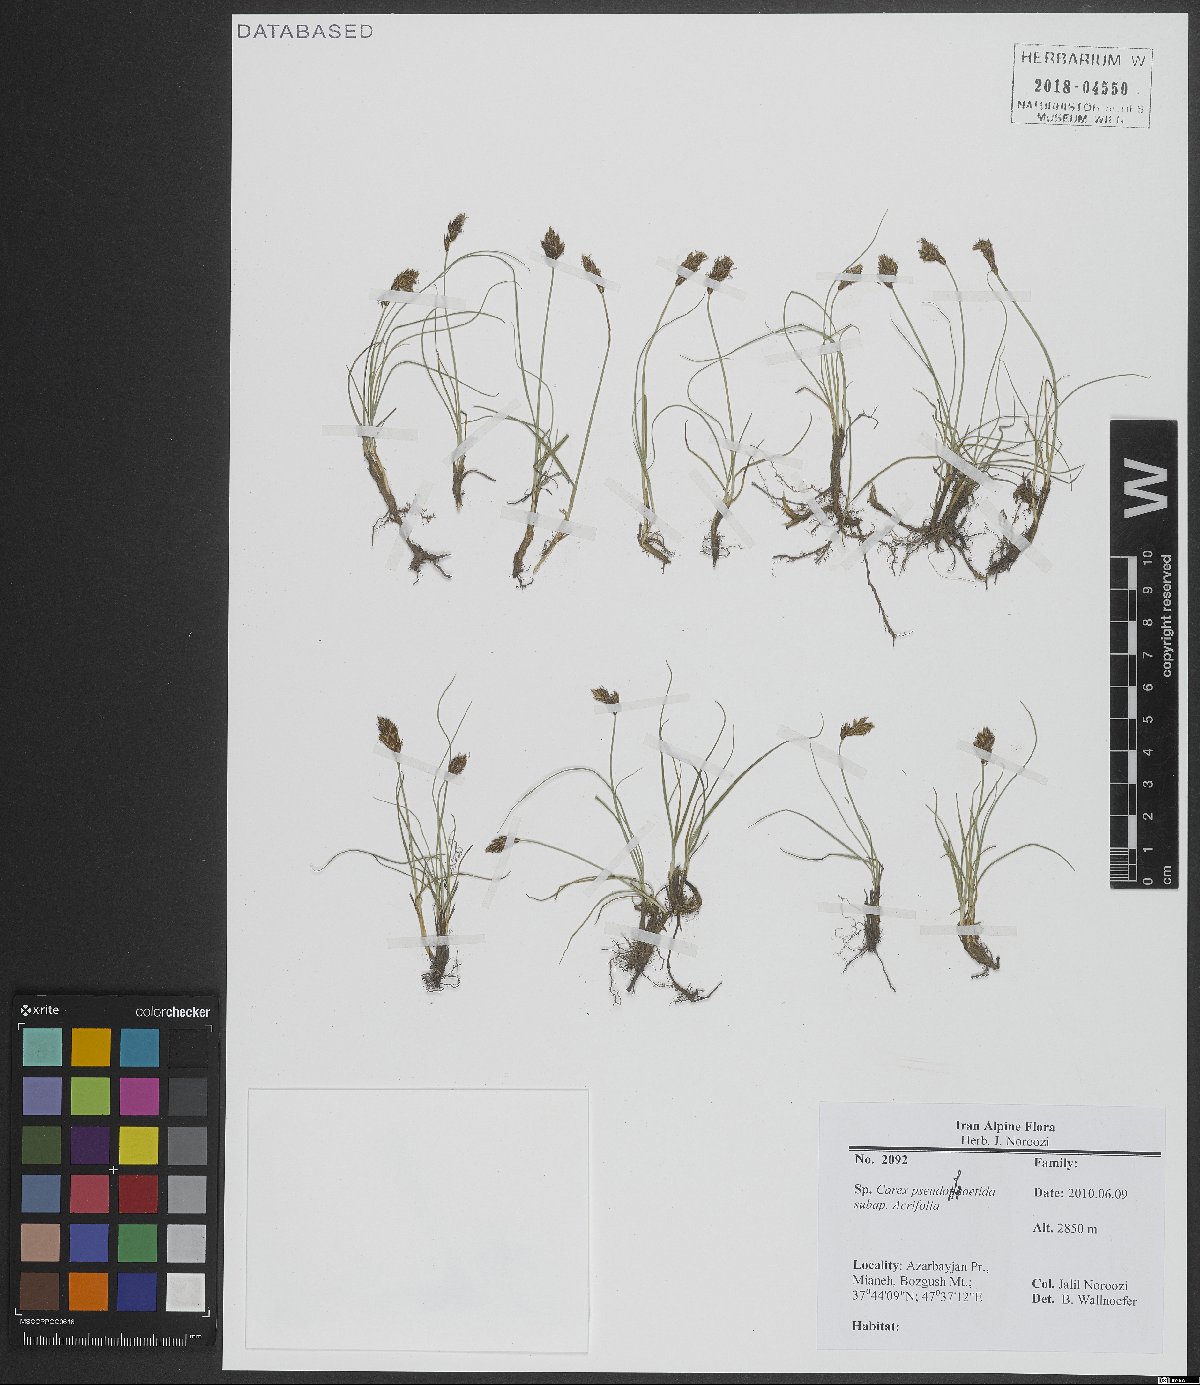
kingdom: Plantae
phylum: Tracheophyta
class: Liliopsida
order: Poales
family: Cyperaceae
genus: Carex
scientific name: Carex pseudofoetida
